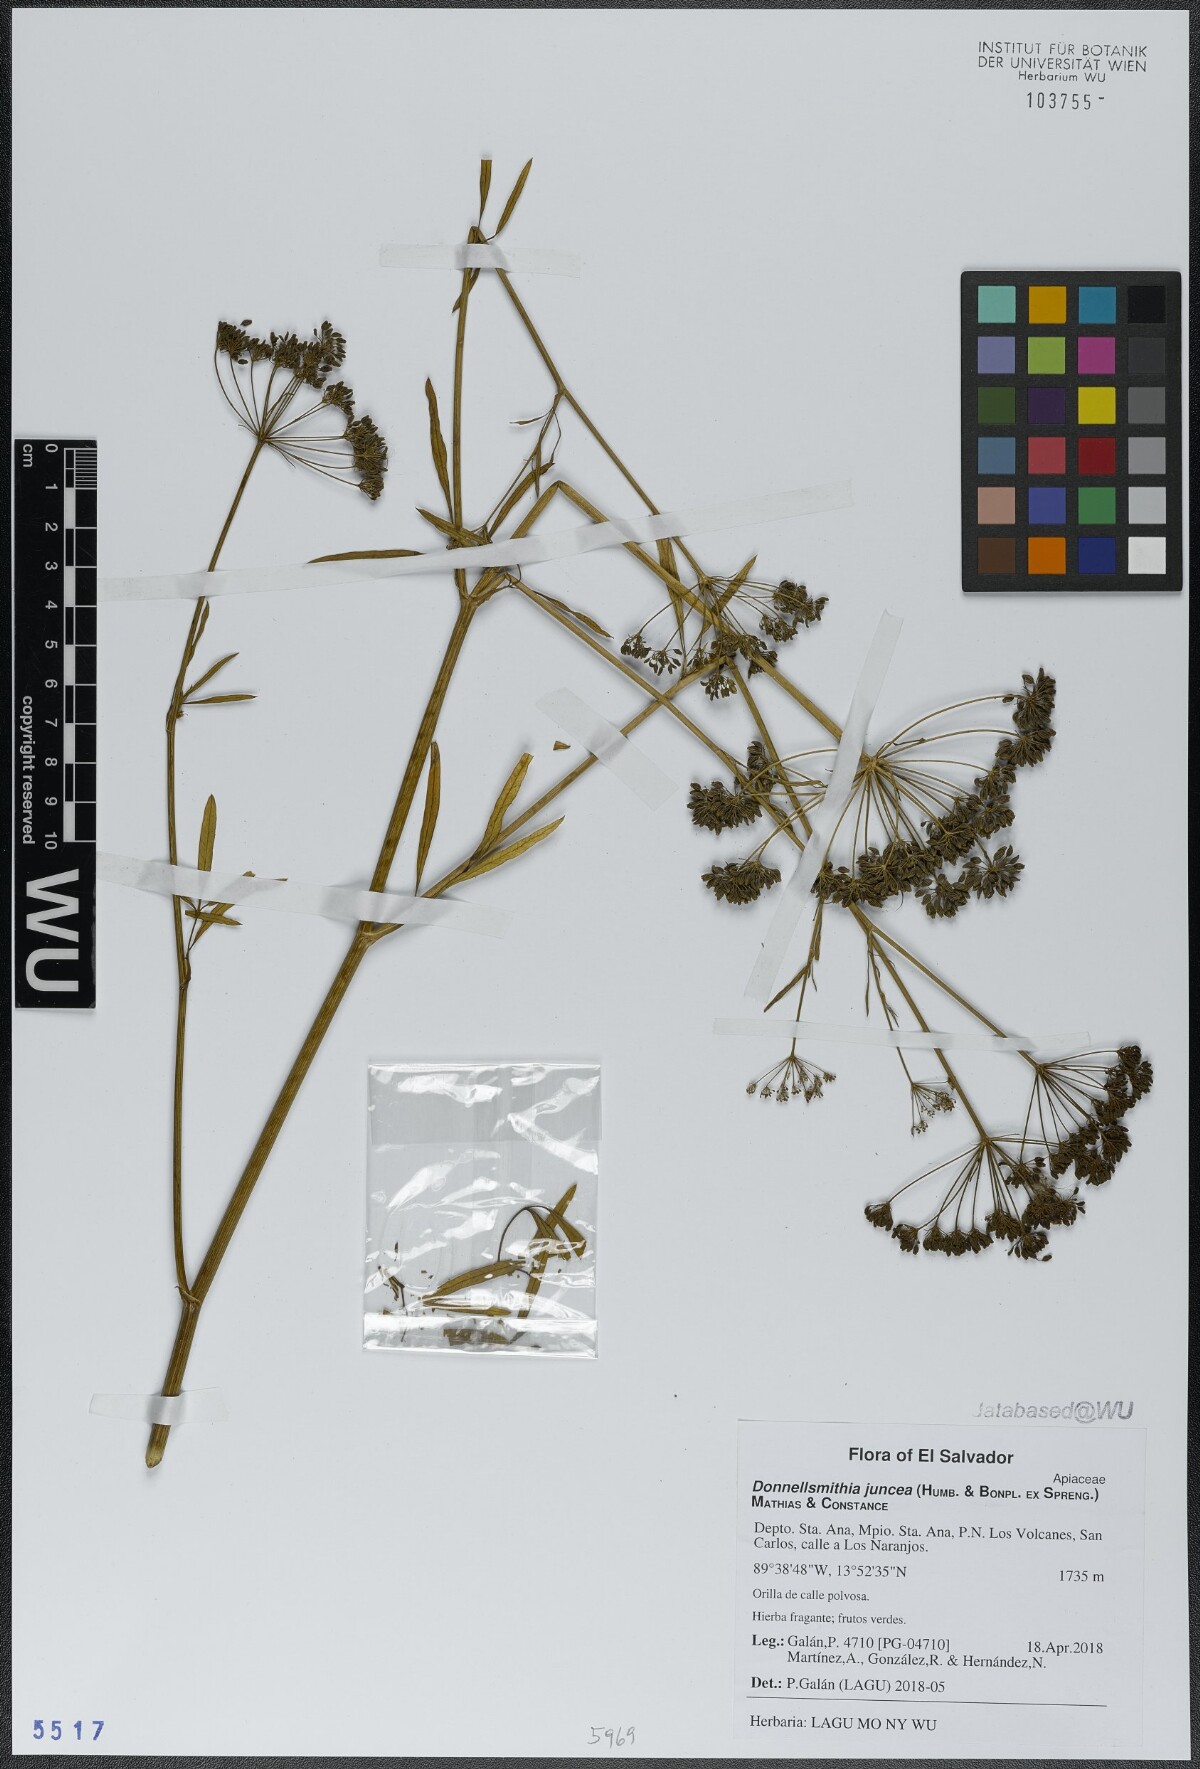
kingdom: Plantae
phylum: Tracheophyta
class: Magnoliopsida
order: Apiales
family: Apiaceae
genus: Donnellsmithia
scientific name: Donnellsmithia juncea
